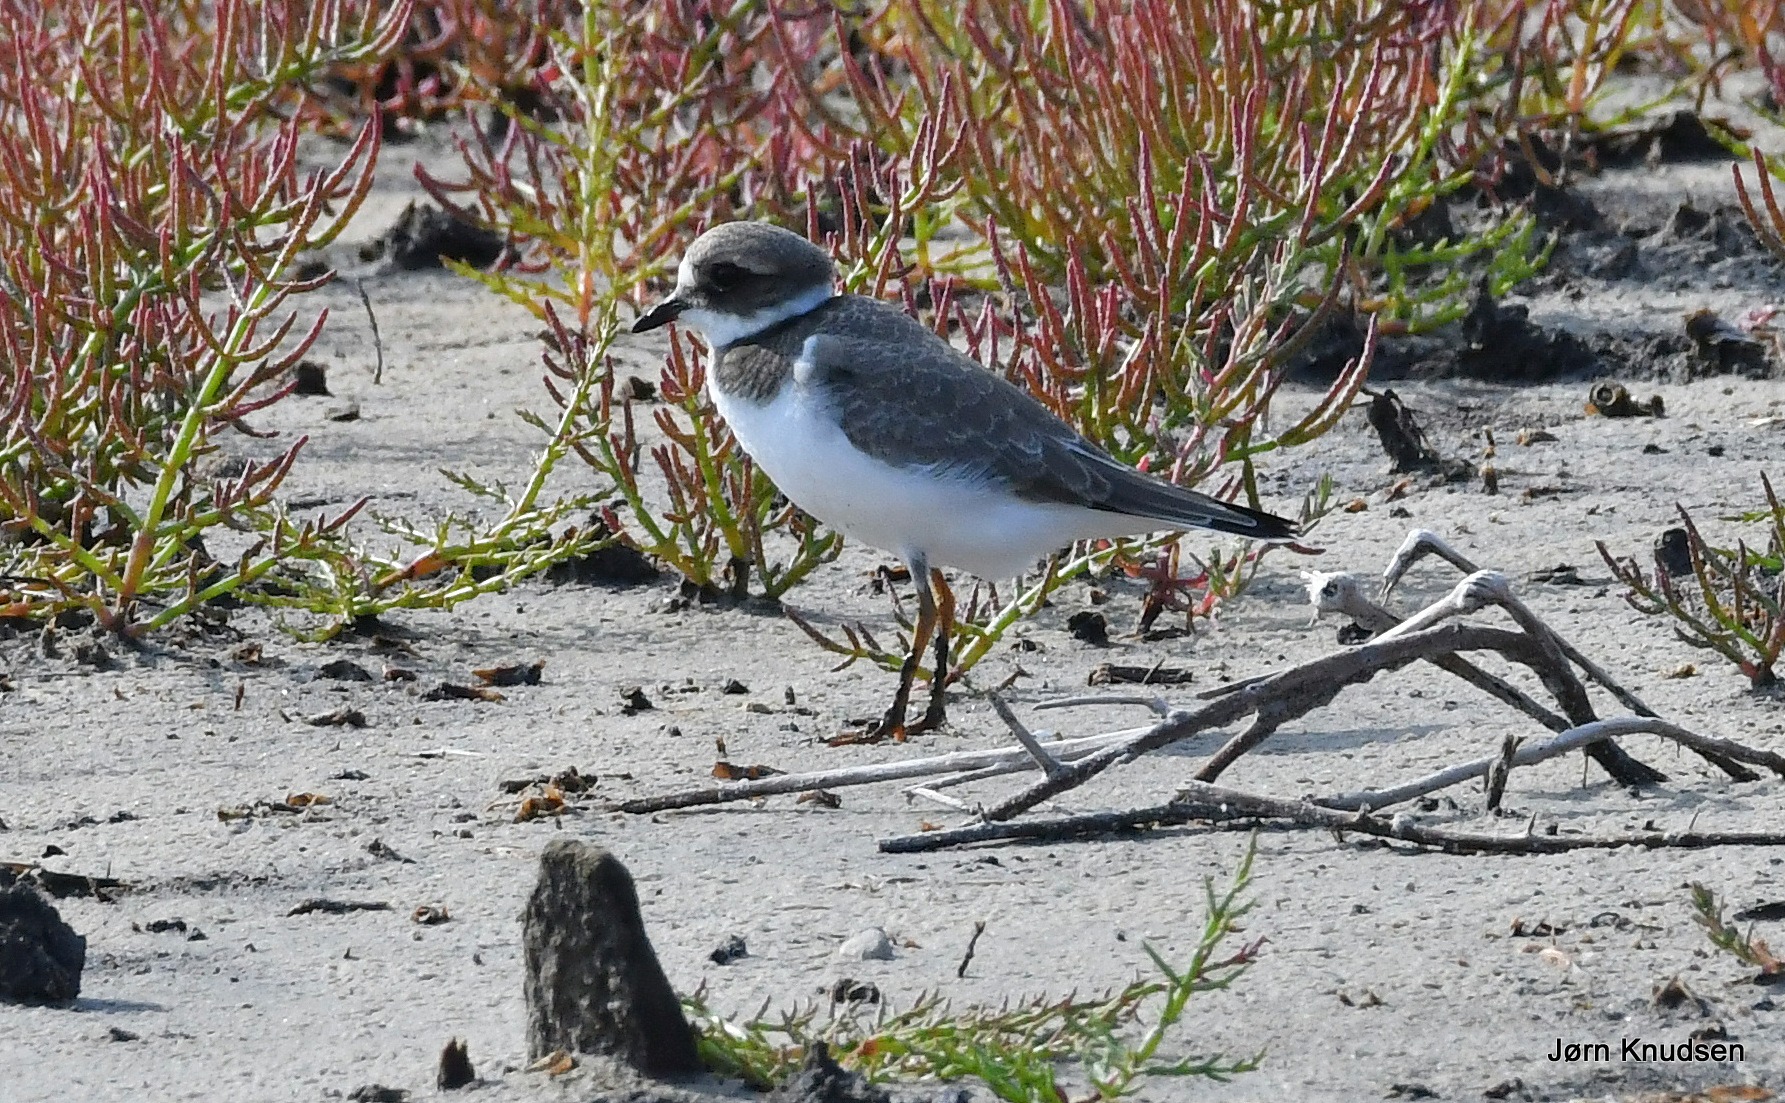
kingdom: Animalia
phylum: Chordata
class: Aves
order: Charadriiformes
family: Charadriidae
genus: Charadrius
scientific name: Charadrius hiaticula
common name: Stor præstekrave
